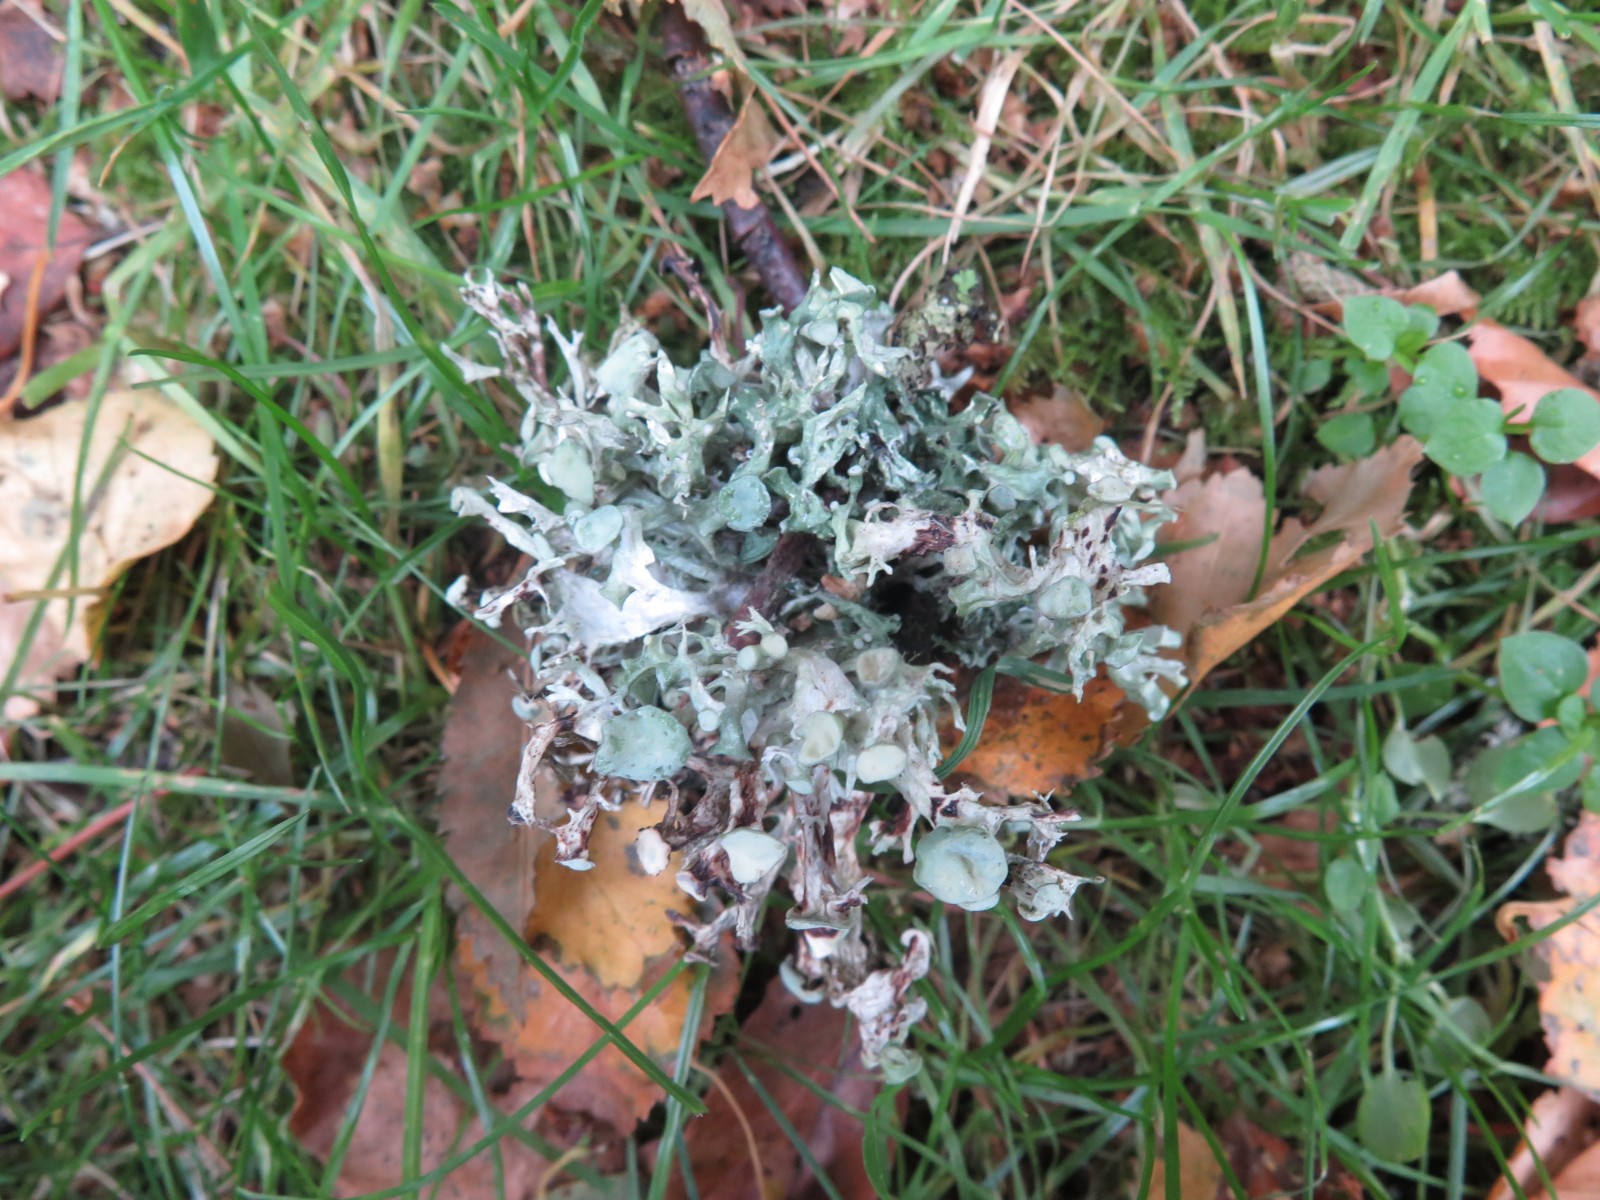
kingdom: Fungi
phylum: Ascomycota
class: Lecanoromycetes
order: Lecanorales
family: Ramalinaceae
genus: Ramalina
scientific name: Ramalina fastigiata
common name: tue-grenlav
